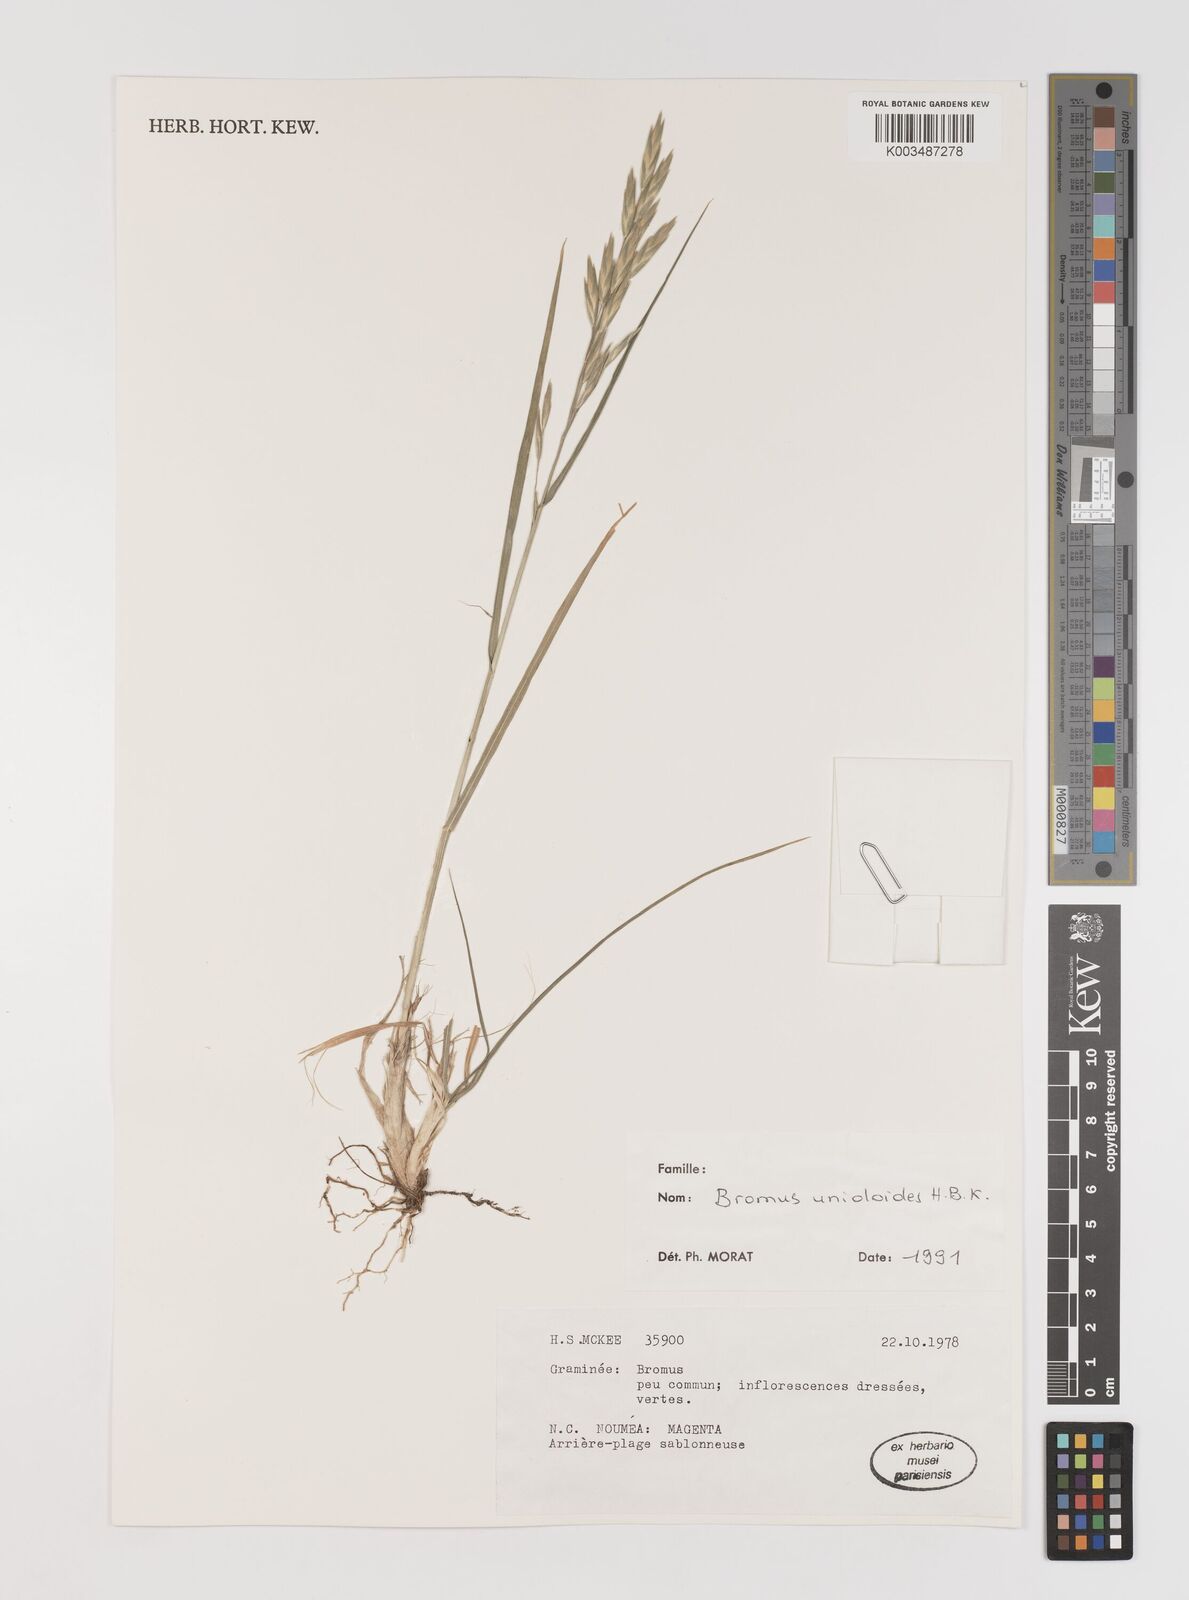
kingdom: Plantae
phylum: Tracheophyta
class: Liliopsida
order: Poales
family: Poaceae
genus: Bromus
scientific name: Bromus catharticus
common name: Rescuegrass
